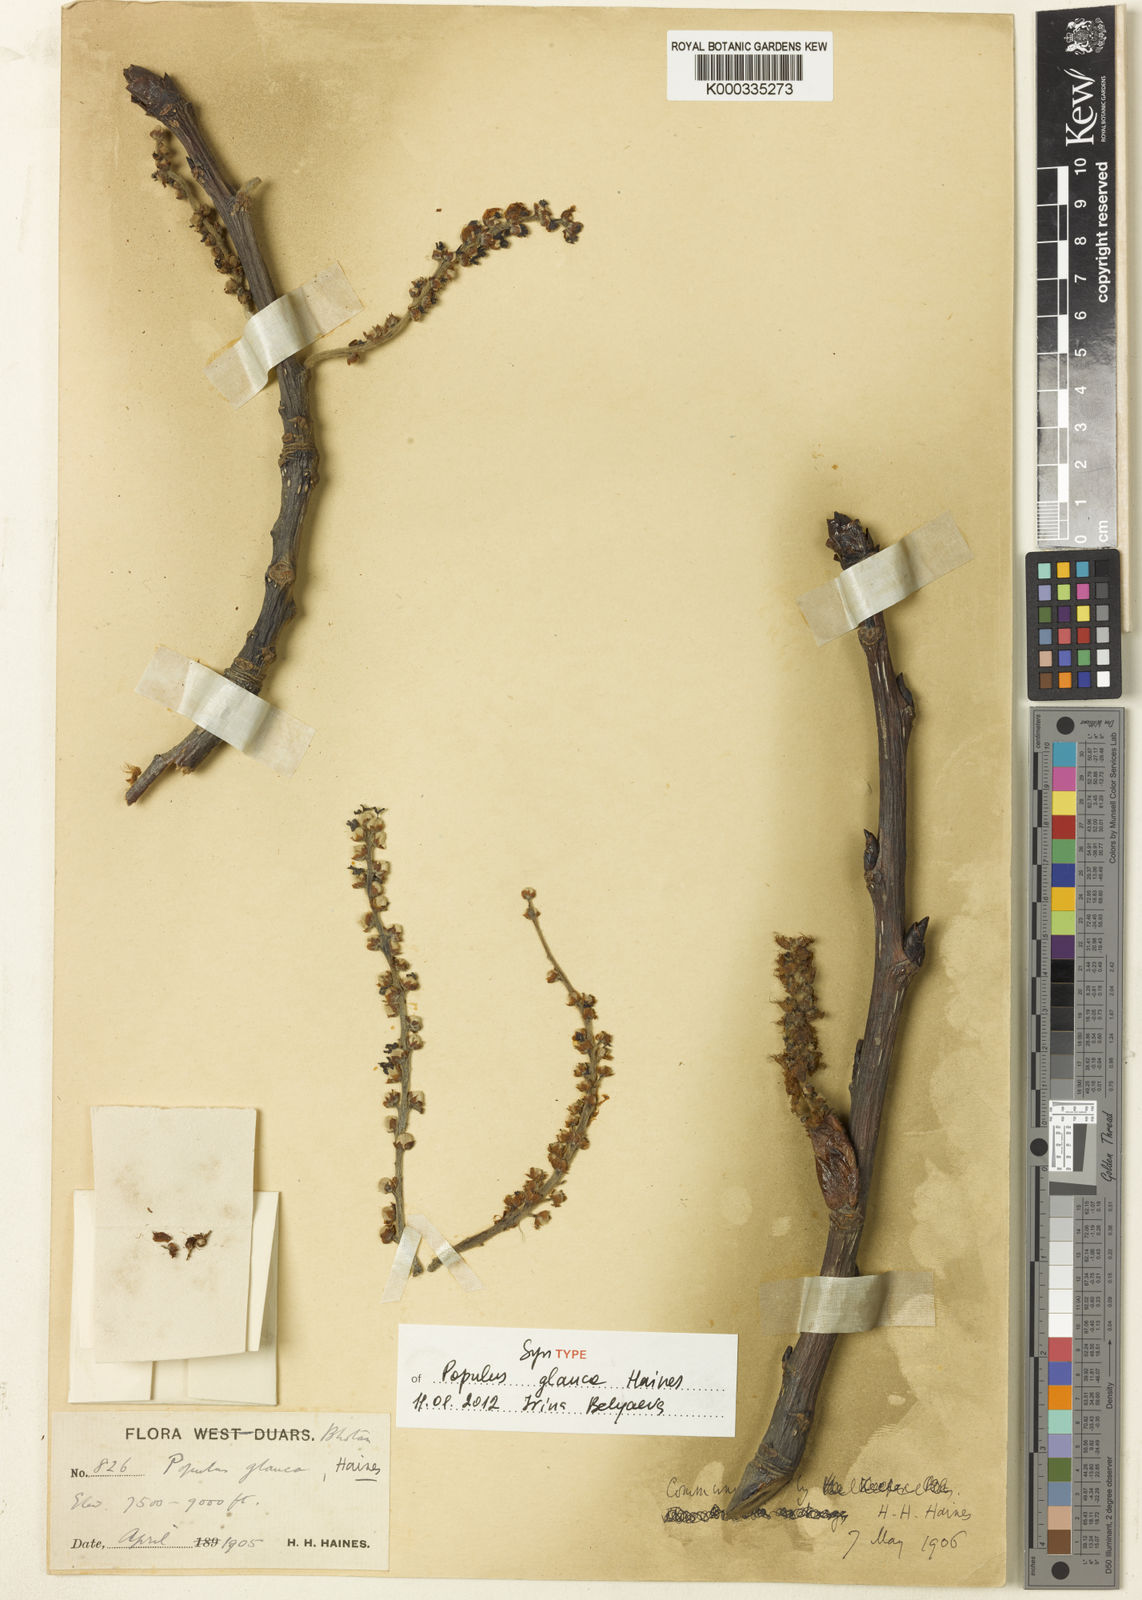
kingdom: Plantae
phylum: Tracheophyta
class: Magnoliopsida
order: Malpighiales
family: Salicaceae
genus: Populus
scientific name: Populus glauca
